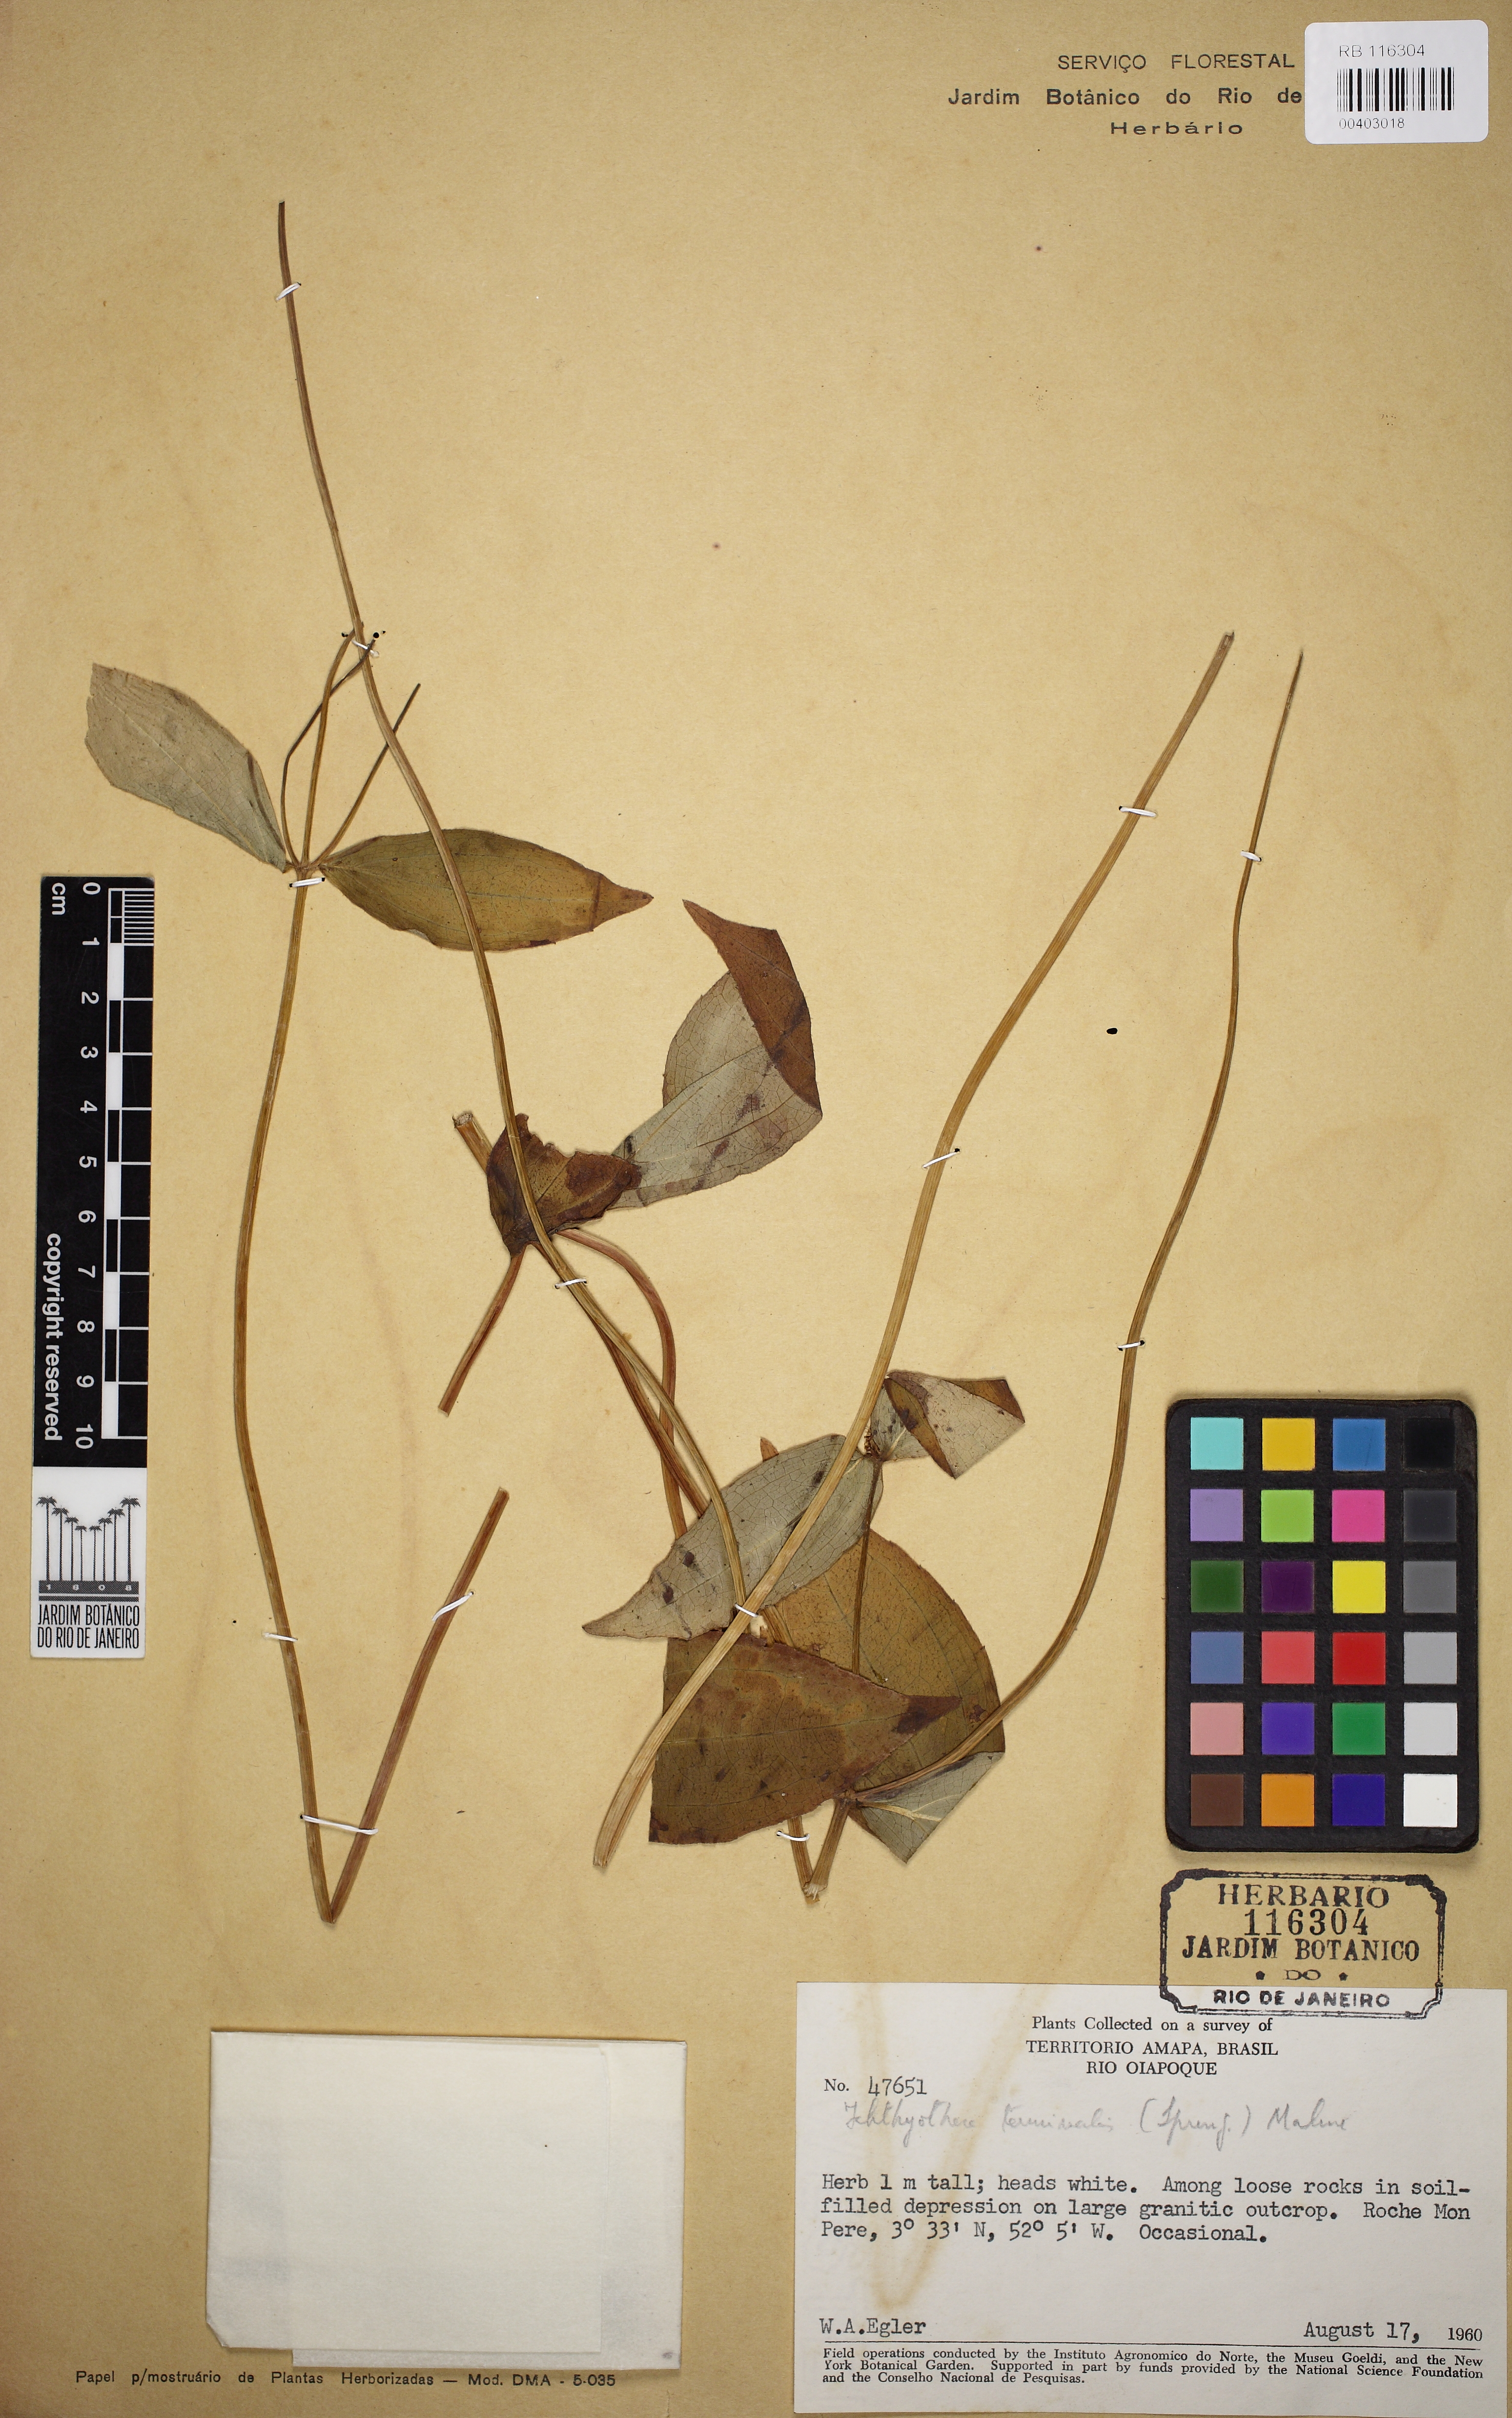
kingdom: Plantae
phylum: Tracheophyta
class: Magnoliopsida
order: Asterales
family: Asteraceae
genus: Ichthyothere
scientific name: Ichthyothere terminalis
